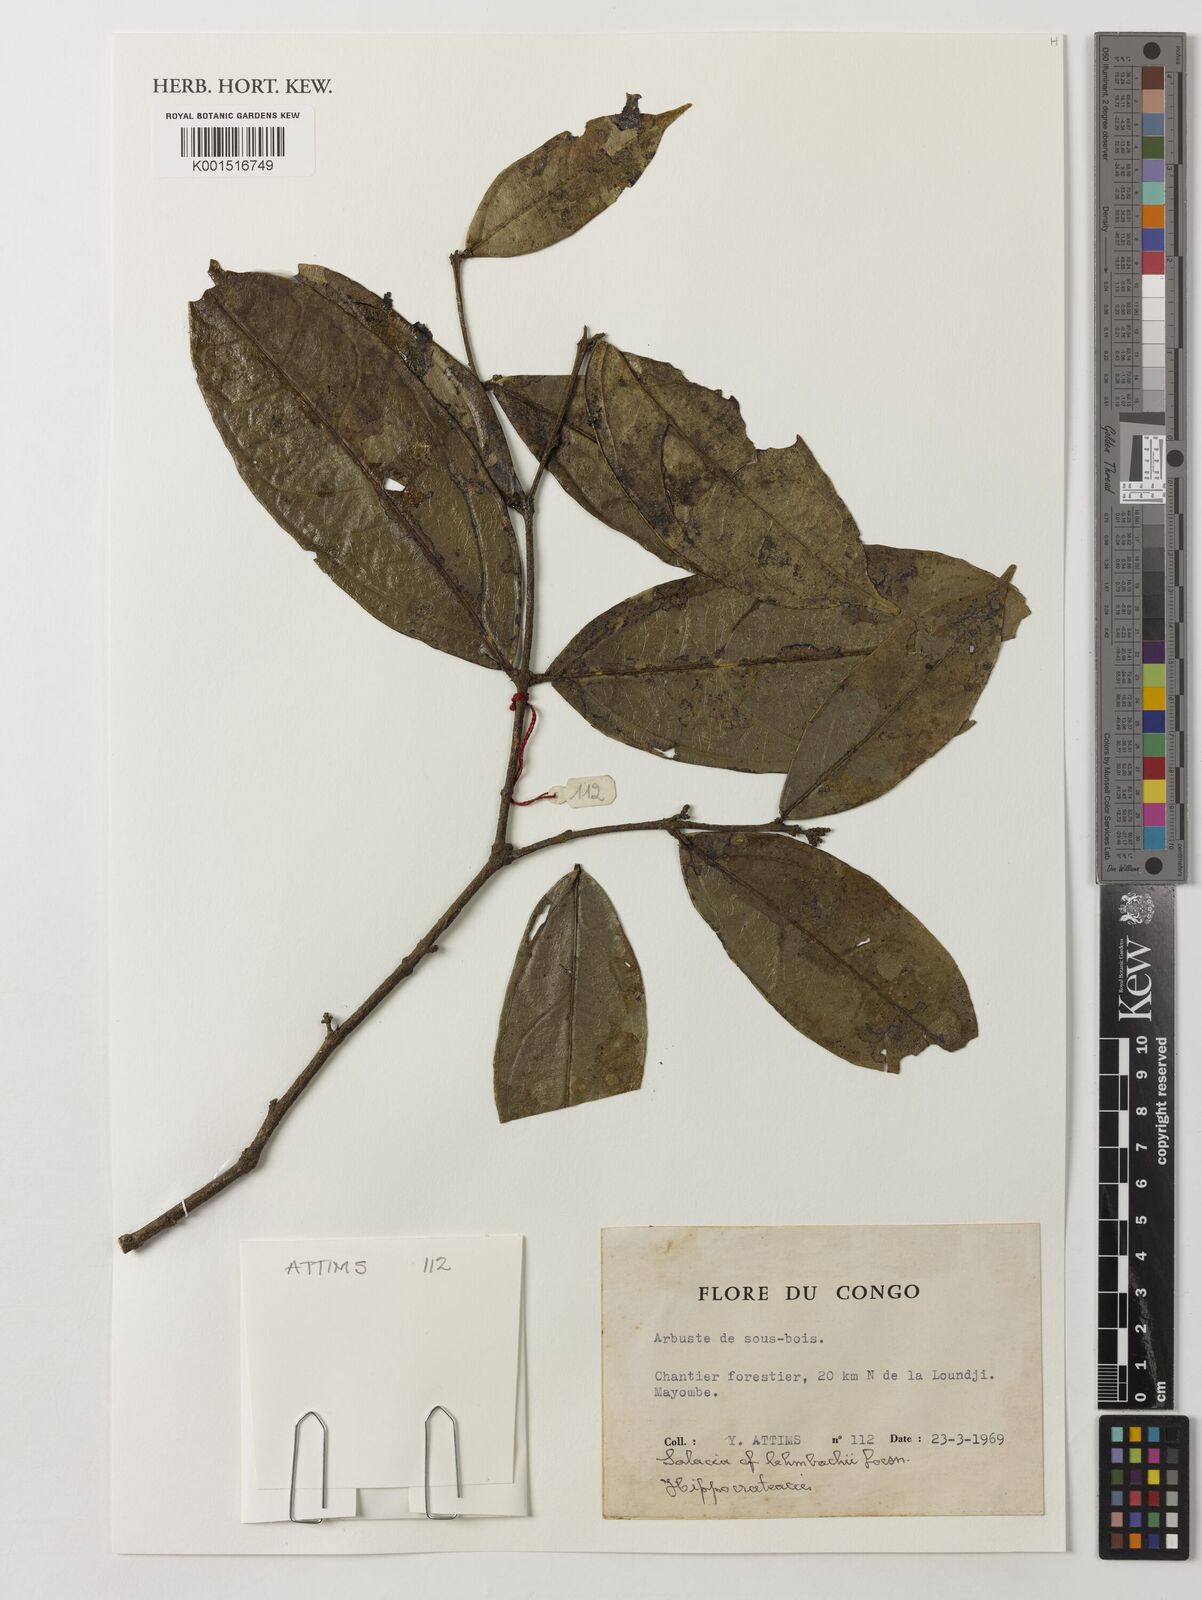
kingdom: Plantae
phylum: Tracheophyta
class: Magnoliopsida
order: Celastrales
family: Celastraceae
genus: Salacia
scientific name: Salacia lehmbachii
